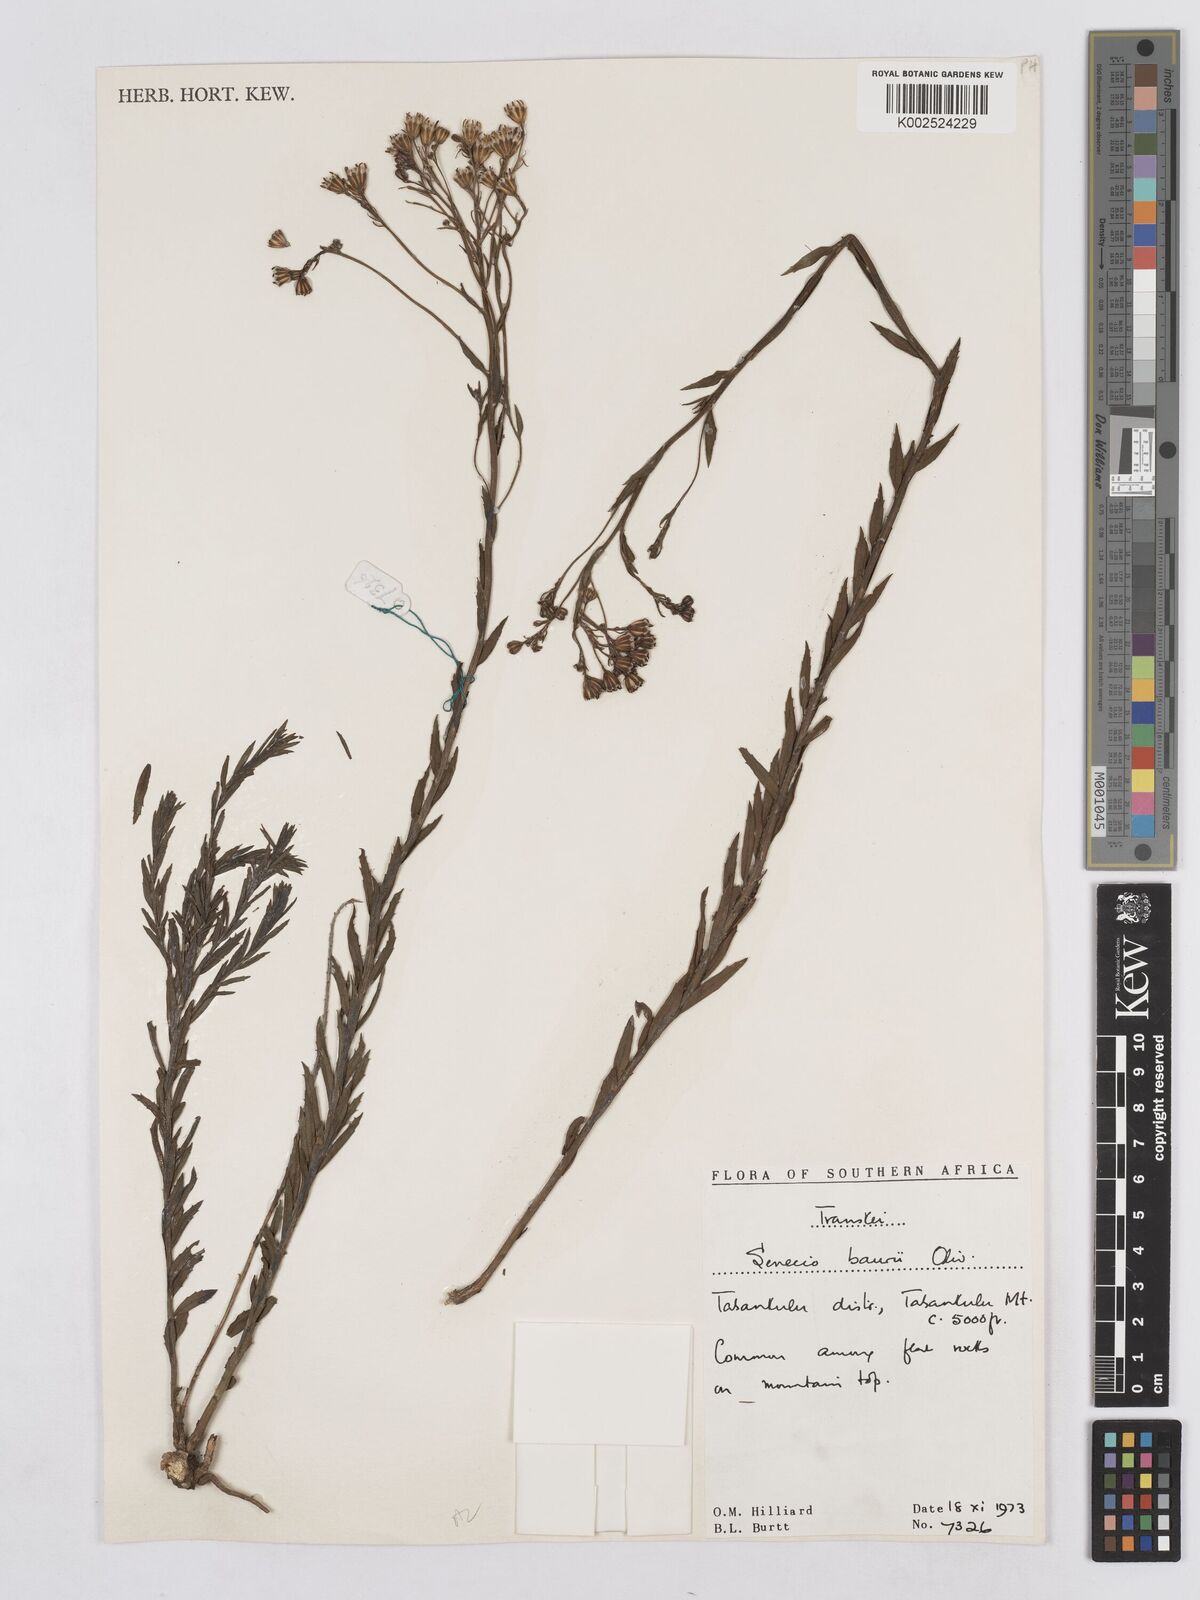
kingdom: Plantae
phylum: Tracheophyta
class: Magnoliopsida
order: Asterales
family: Asteraceae
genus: Senecio
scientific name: Senecio baurii
